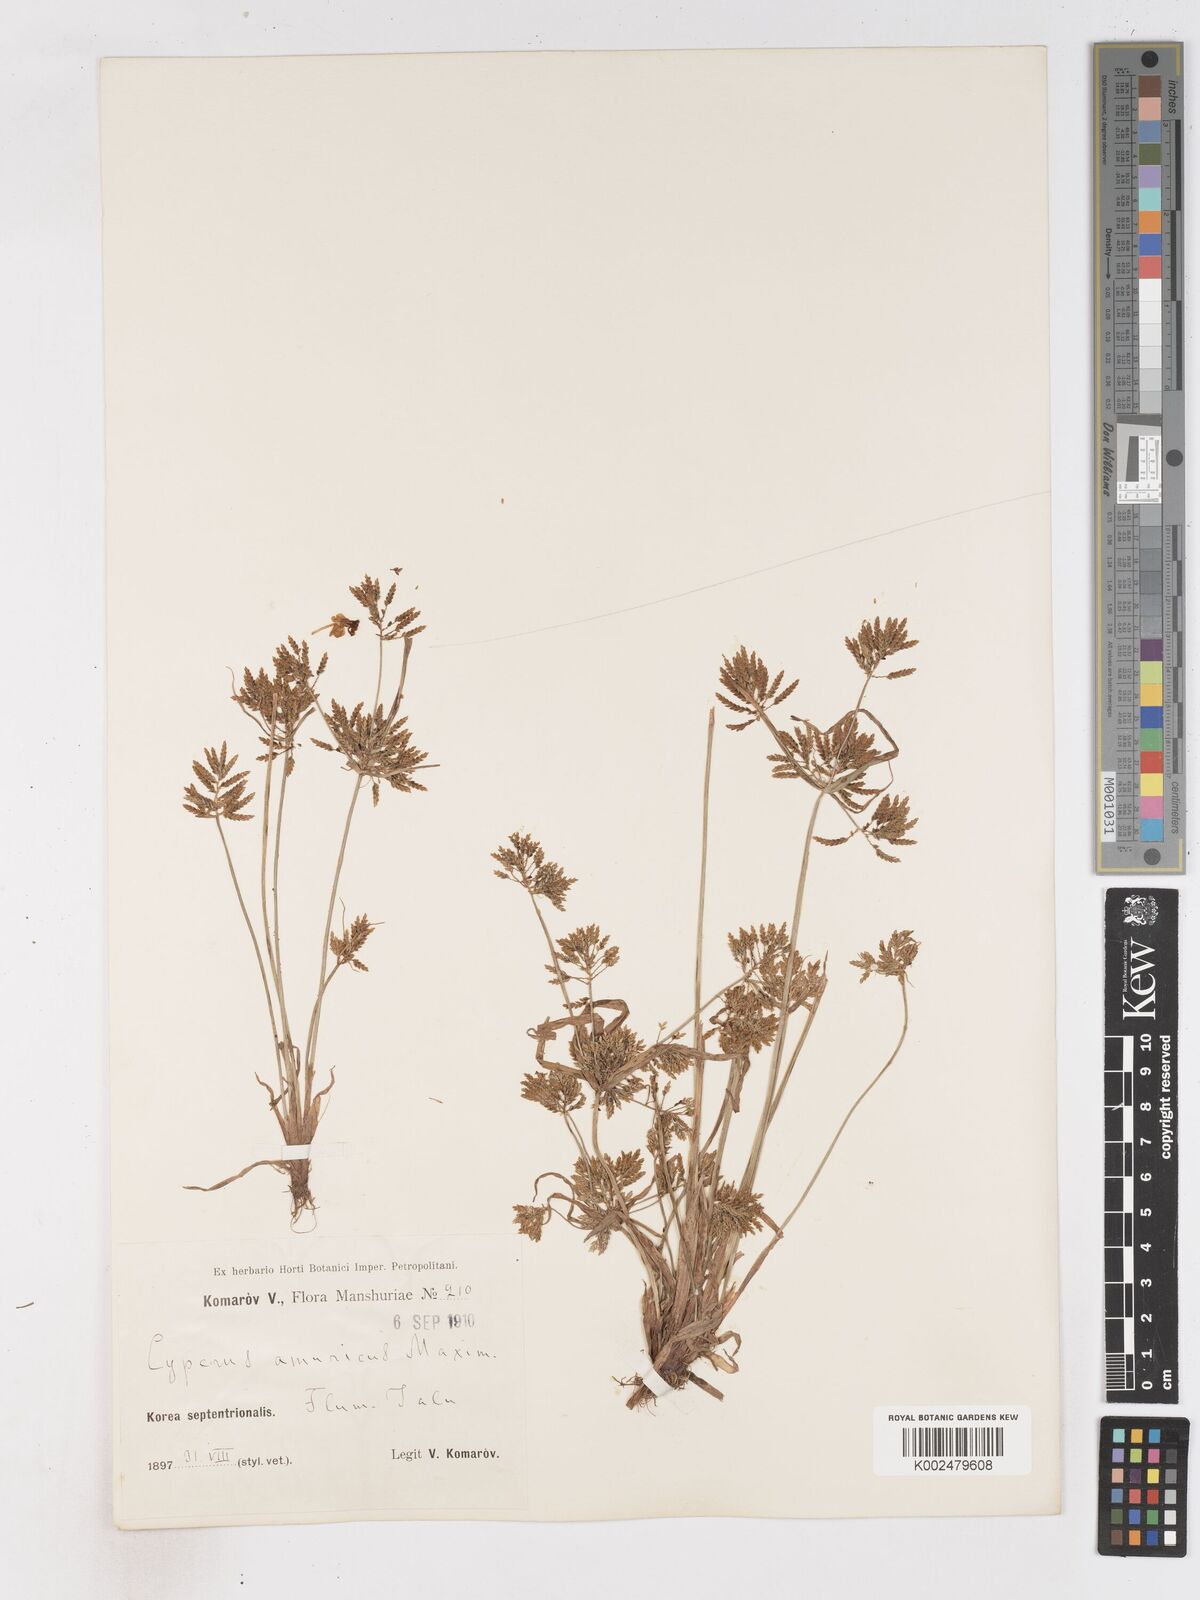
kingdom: Plantae
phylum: Tracheophyta
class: Liliopsida
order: Poales
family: Cyperaceae
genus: Cyperus
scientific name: Cyperus amuricus
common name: Asian flatsedge
